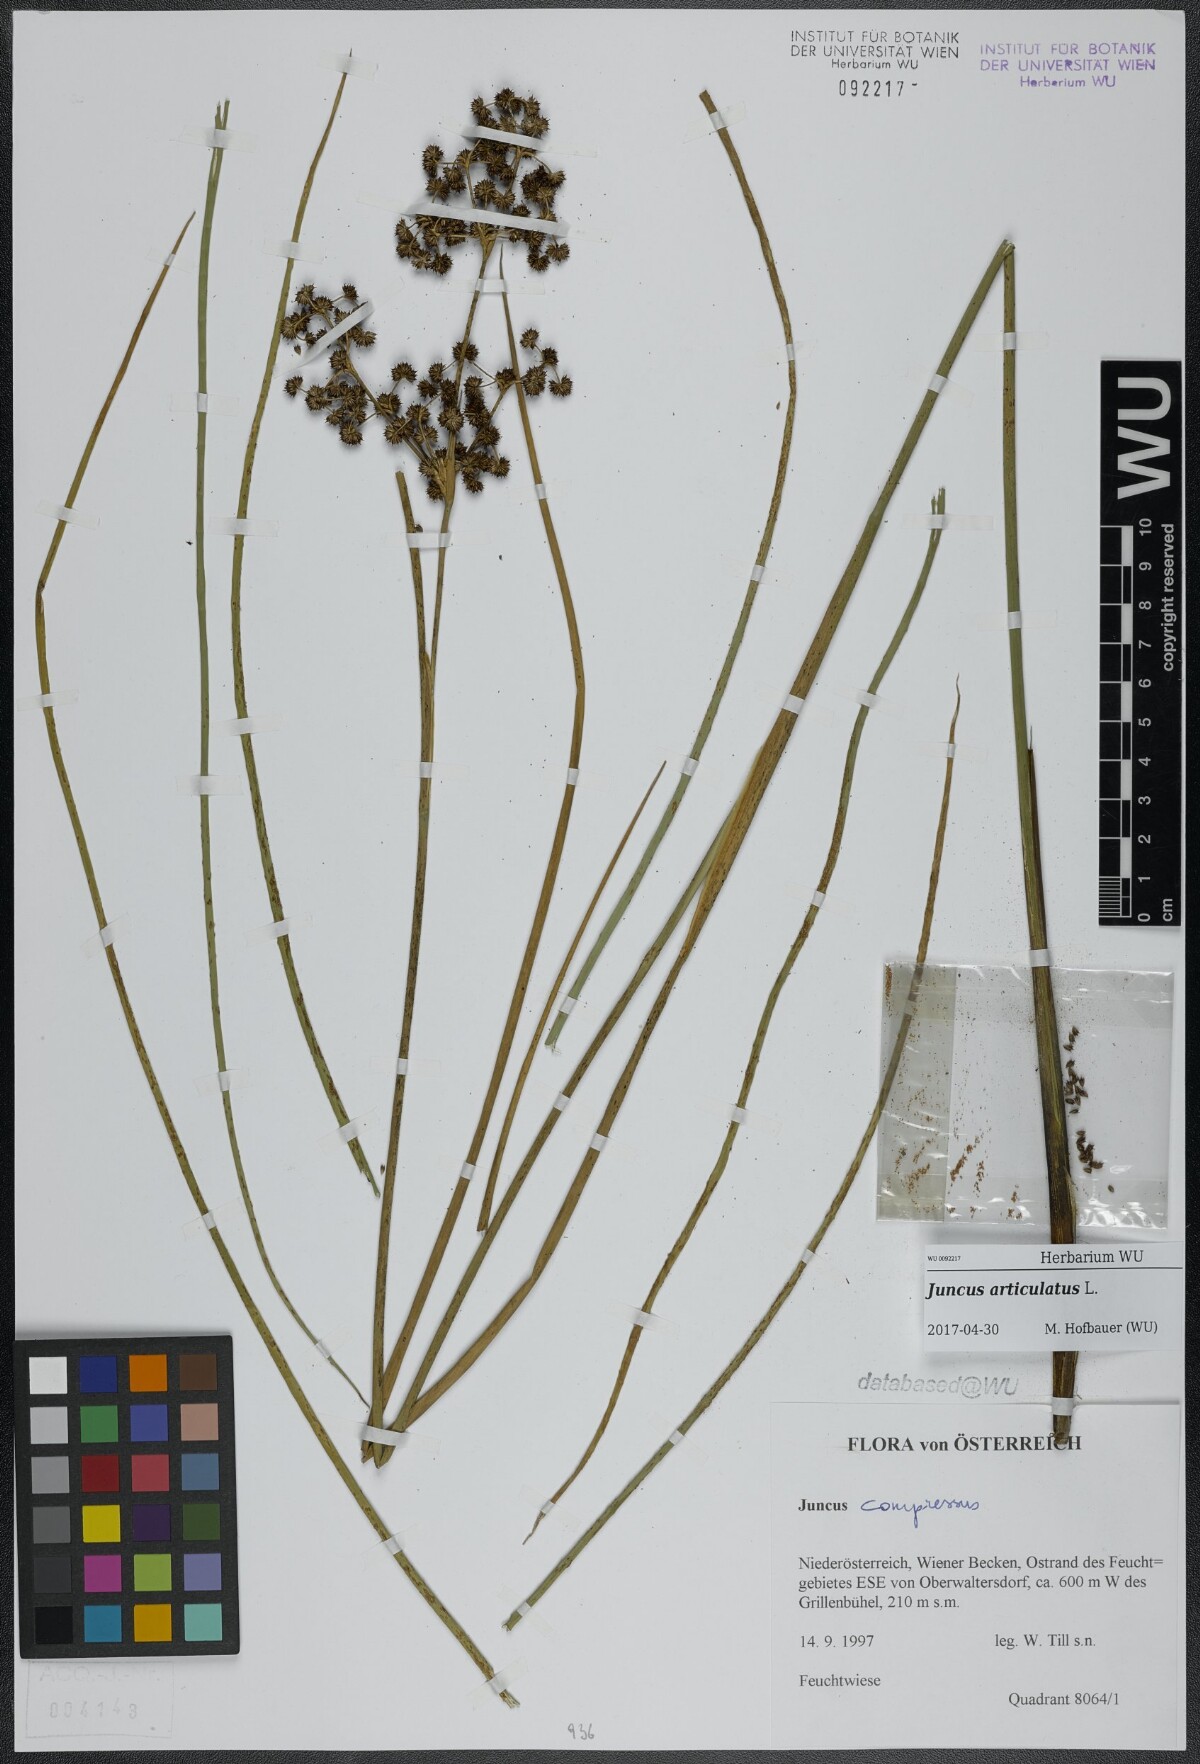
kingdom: Plantae
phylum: Tracheophyta
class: Liliopsida
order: Poales
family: Juncaceae
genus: Juncus
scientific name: Juncus articulatus
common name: Jointed rush
